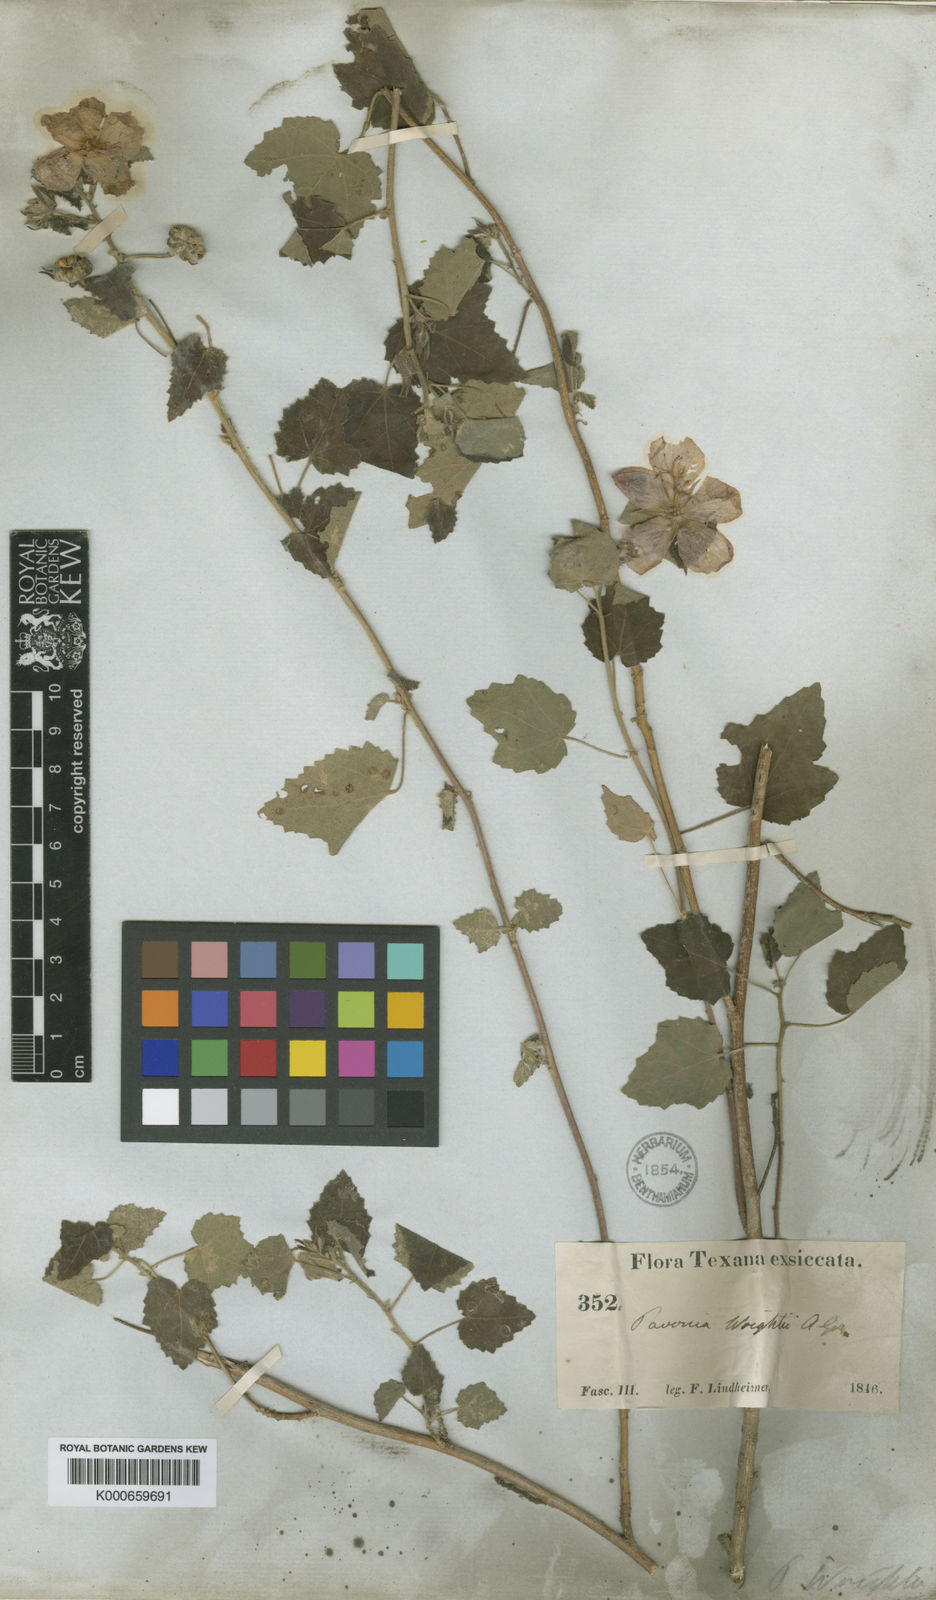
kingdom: Plantae
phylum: Tracheophyta
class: Magnoliopsida
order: Malvales
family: Malvaceae
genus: Pavonia
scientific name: Pavonia lasiopetala
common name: Texas swamp-mallow
